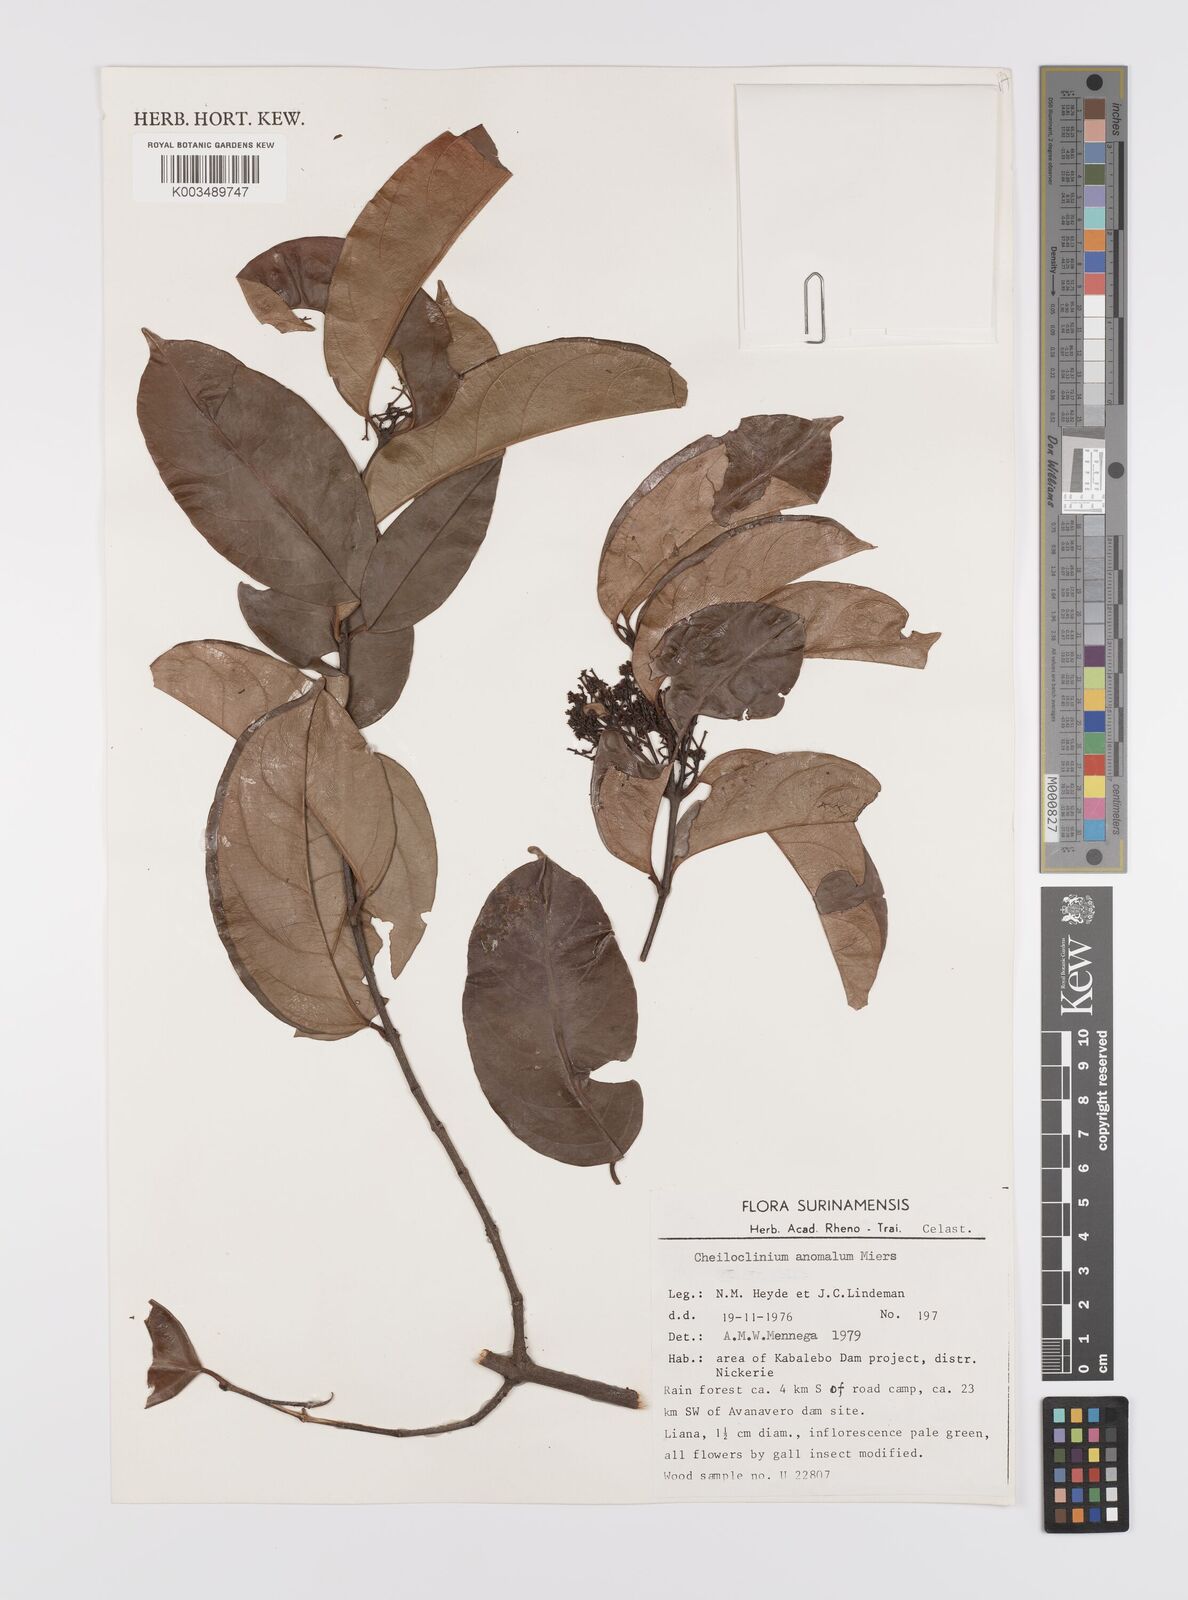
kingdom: Plantae
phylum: Tracheophyta
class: Magnoliopsida
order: Celastrales
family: Celastraceae
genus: Cheiloclinium
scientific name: Cheiloclinium anomalum
